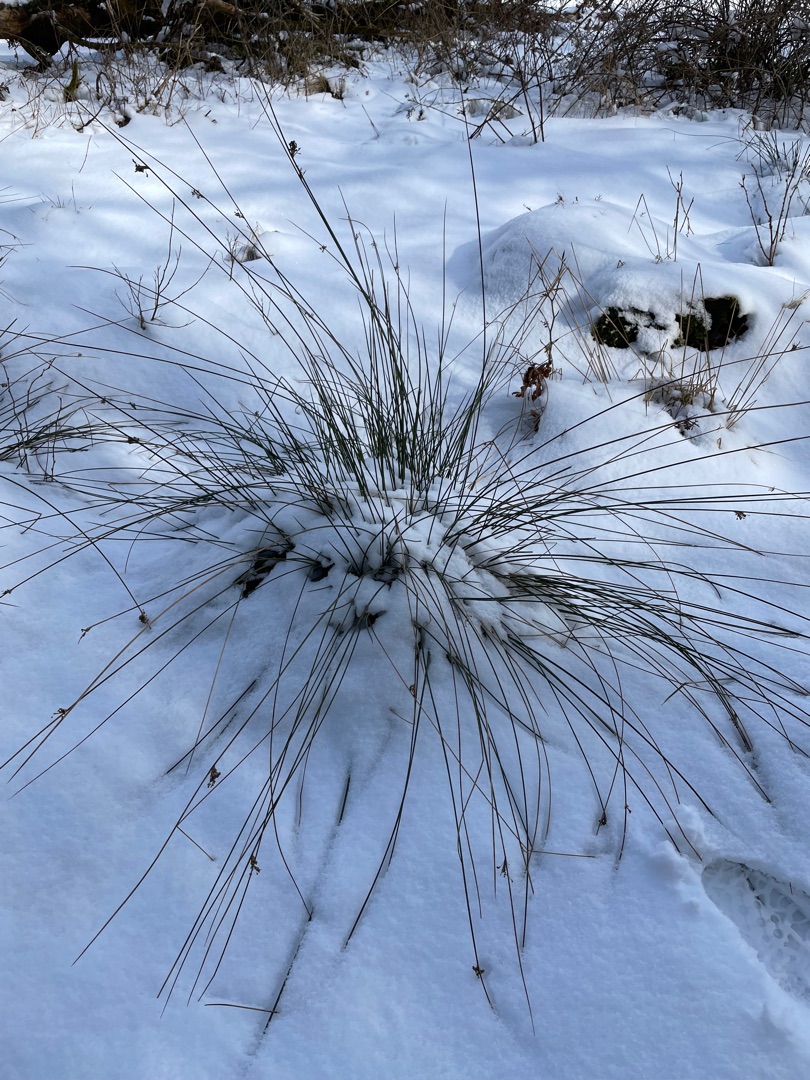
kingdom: Plantae
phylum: Tracheophyta
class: Liliopsida
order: Poales
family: Juncaceae
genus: Juncus
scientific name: Juncus effusus
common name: Lyse-siv
